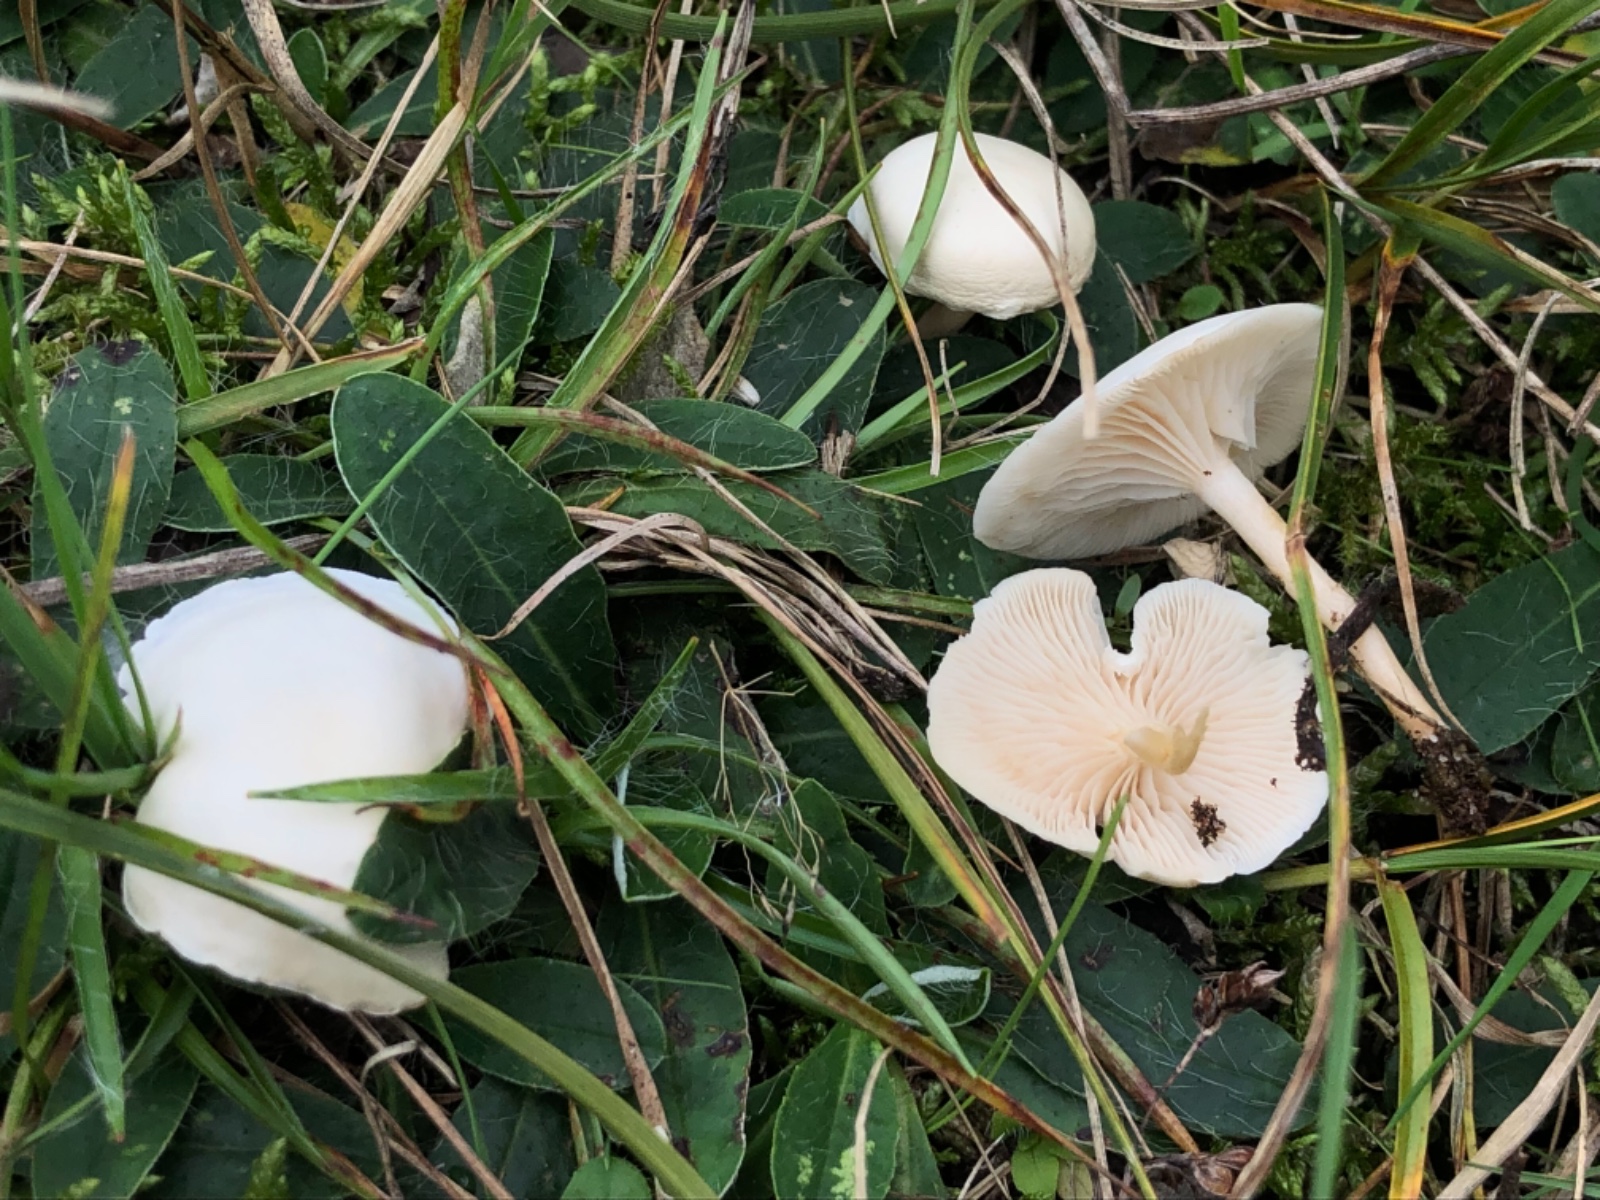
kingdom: Fungi
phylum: Basidiomycota
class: Agaricomycetes
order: Agaricales
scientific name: Agaricales
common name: champignonordenen
